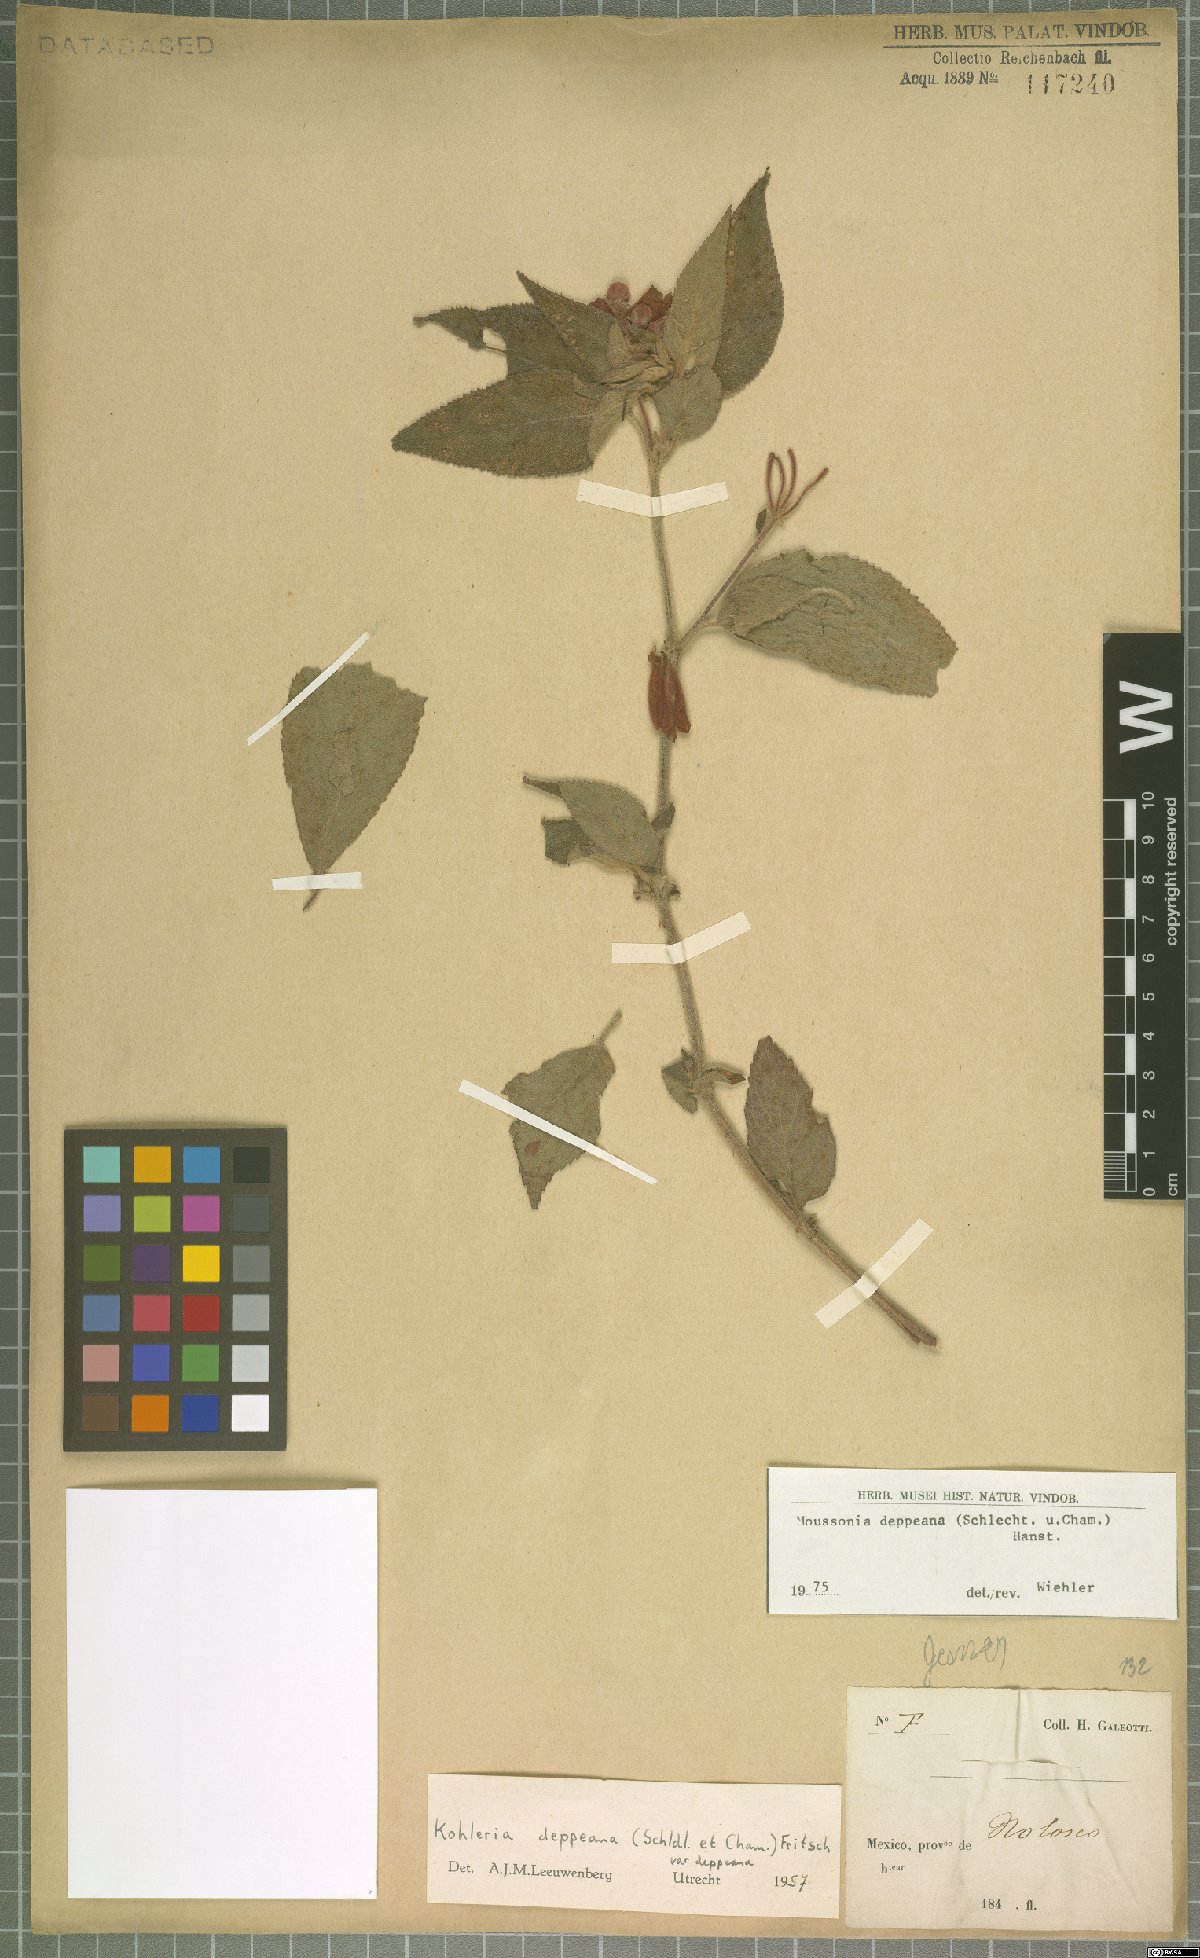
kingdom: Plantae
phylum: Tracheophyta
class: Magnoliopsida
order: Lamiales
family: Gesneriaceae
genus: Moussonia
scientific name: Moussonia deppeana
